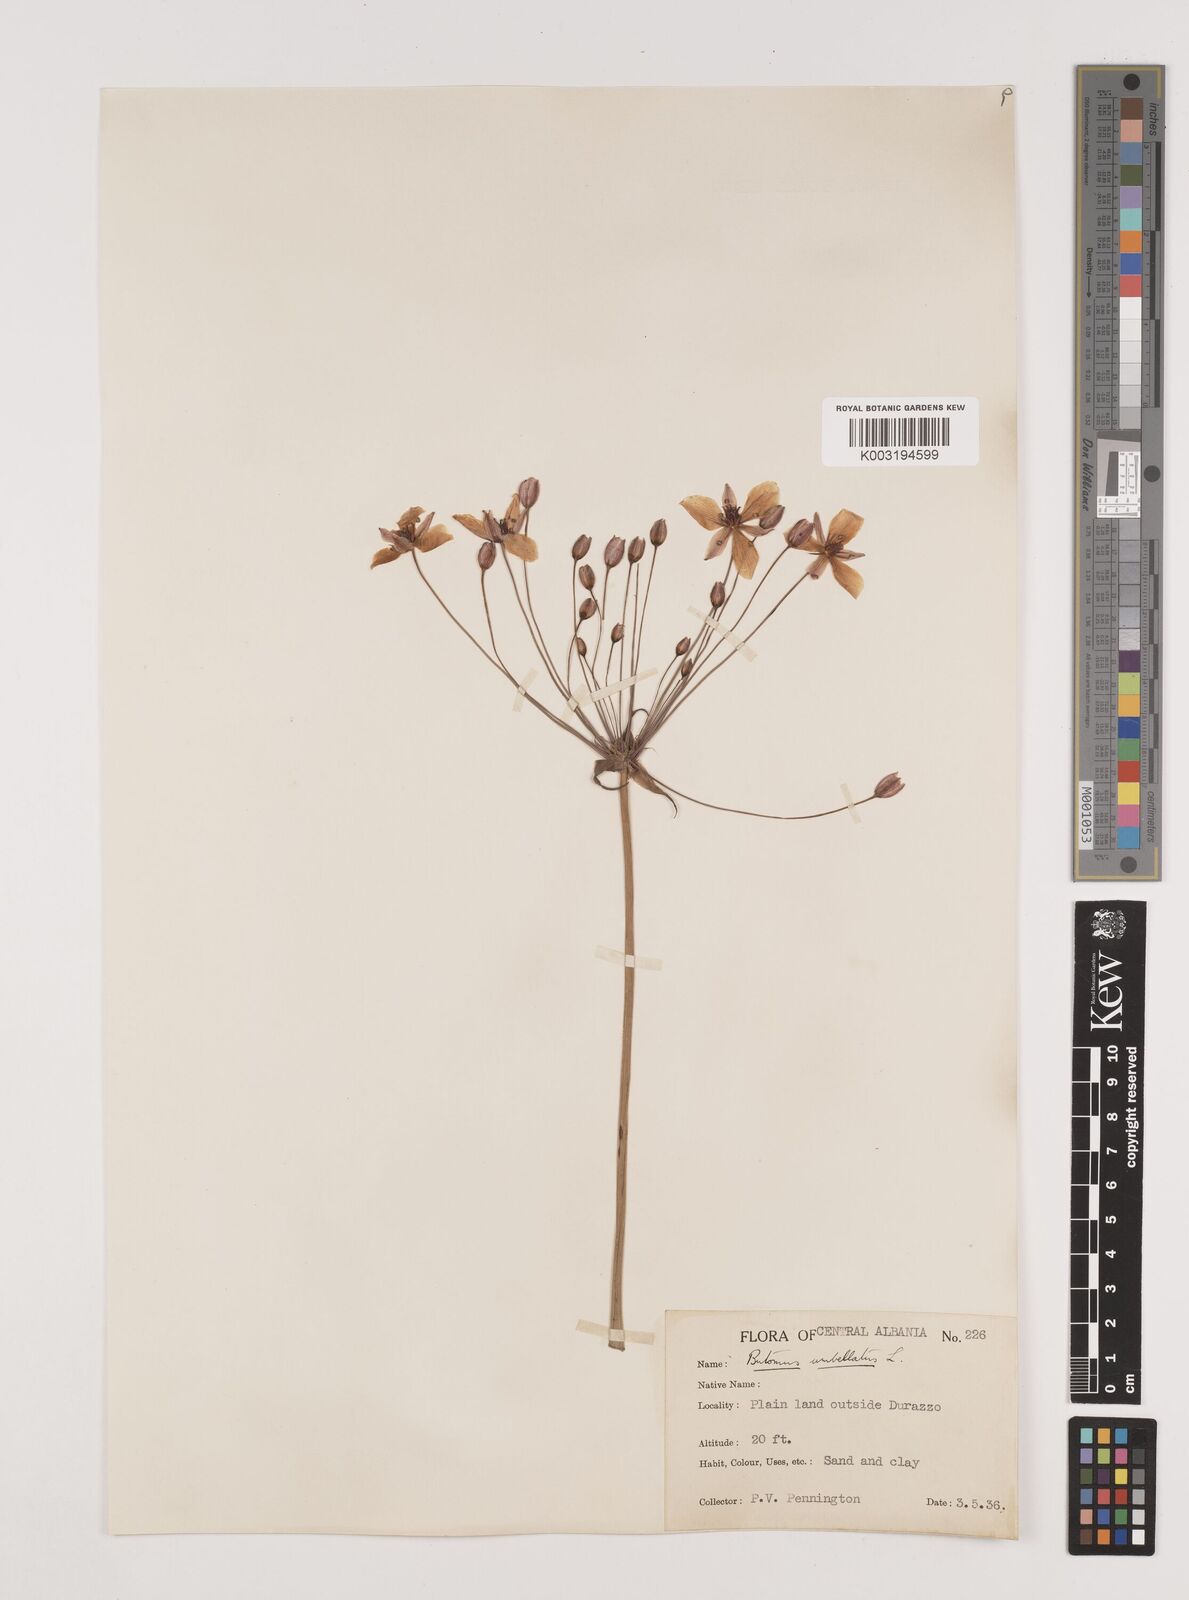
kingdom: Plantae
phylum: Tracheophyta
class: Liliopsida
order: Alismatales
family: Butomaceae
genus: Butomus
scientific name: Butomus umbellatus
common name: Flowering-rush
